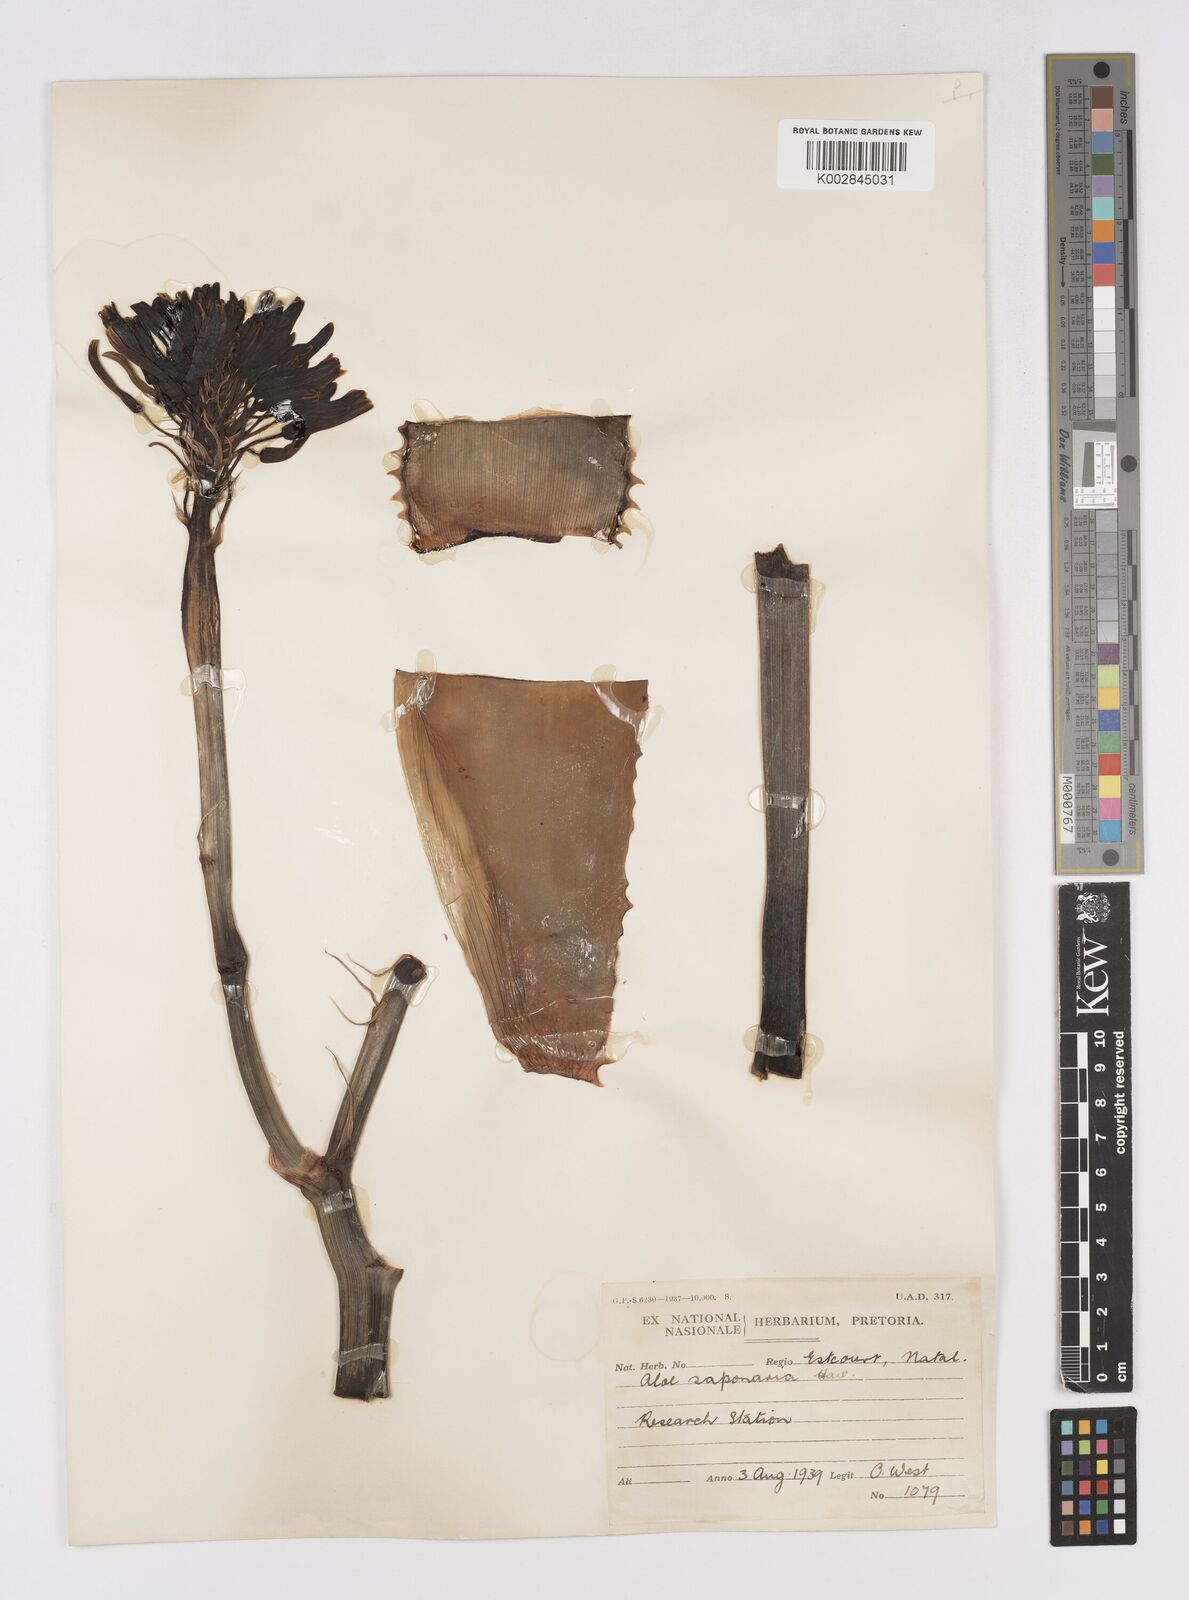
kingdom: Plantae
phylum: Tracheophyta
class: Liliopsida
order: Asparagales
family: Asphodelaceae
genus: Aloe
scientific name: Aloe maculata
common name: Broadleaf aloe
